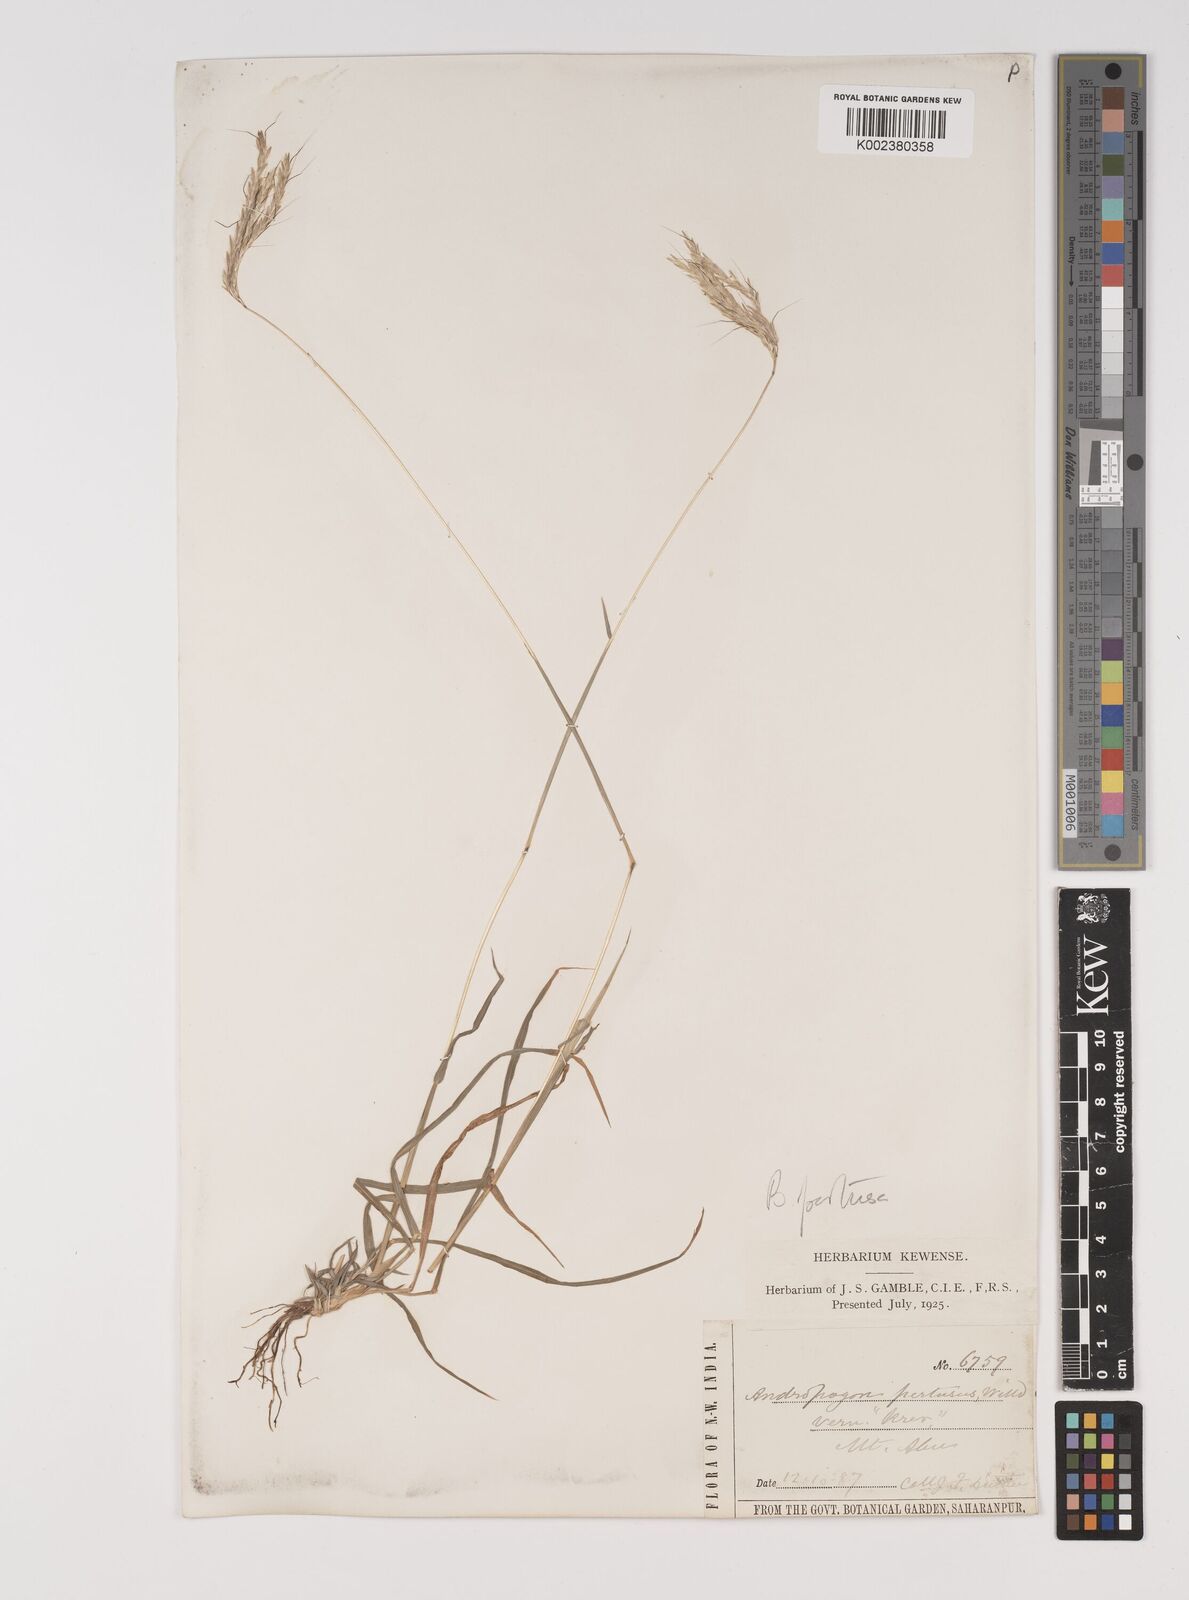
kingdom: Plantae
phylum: Tracheophyta
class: Liliopsida
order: Poales
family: Poaceae
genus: Bothriochloa
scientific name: Bothriochloa pertusa
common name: Pitted beardgrass
